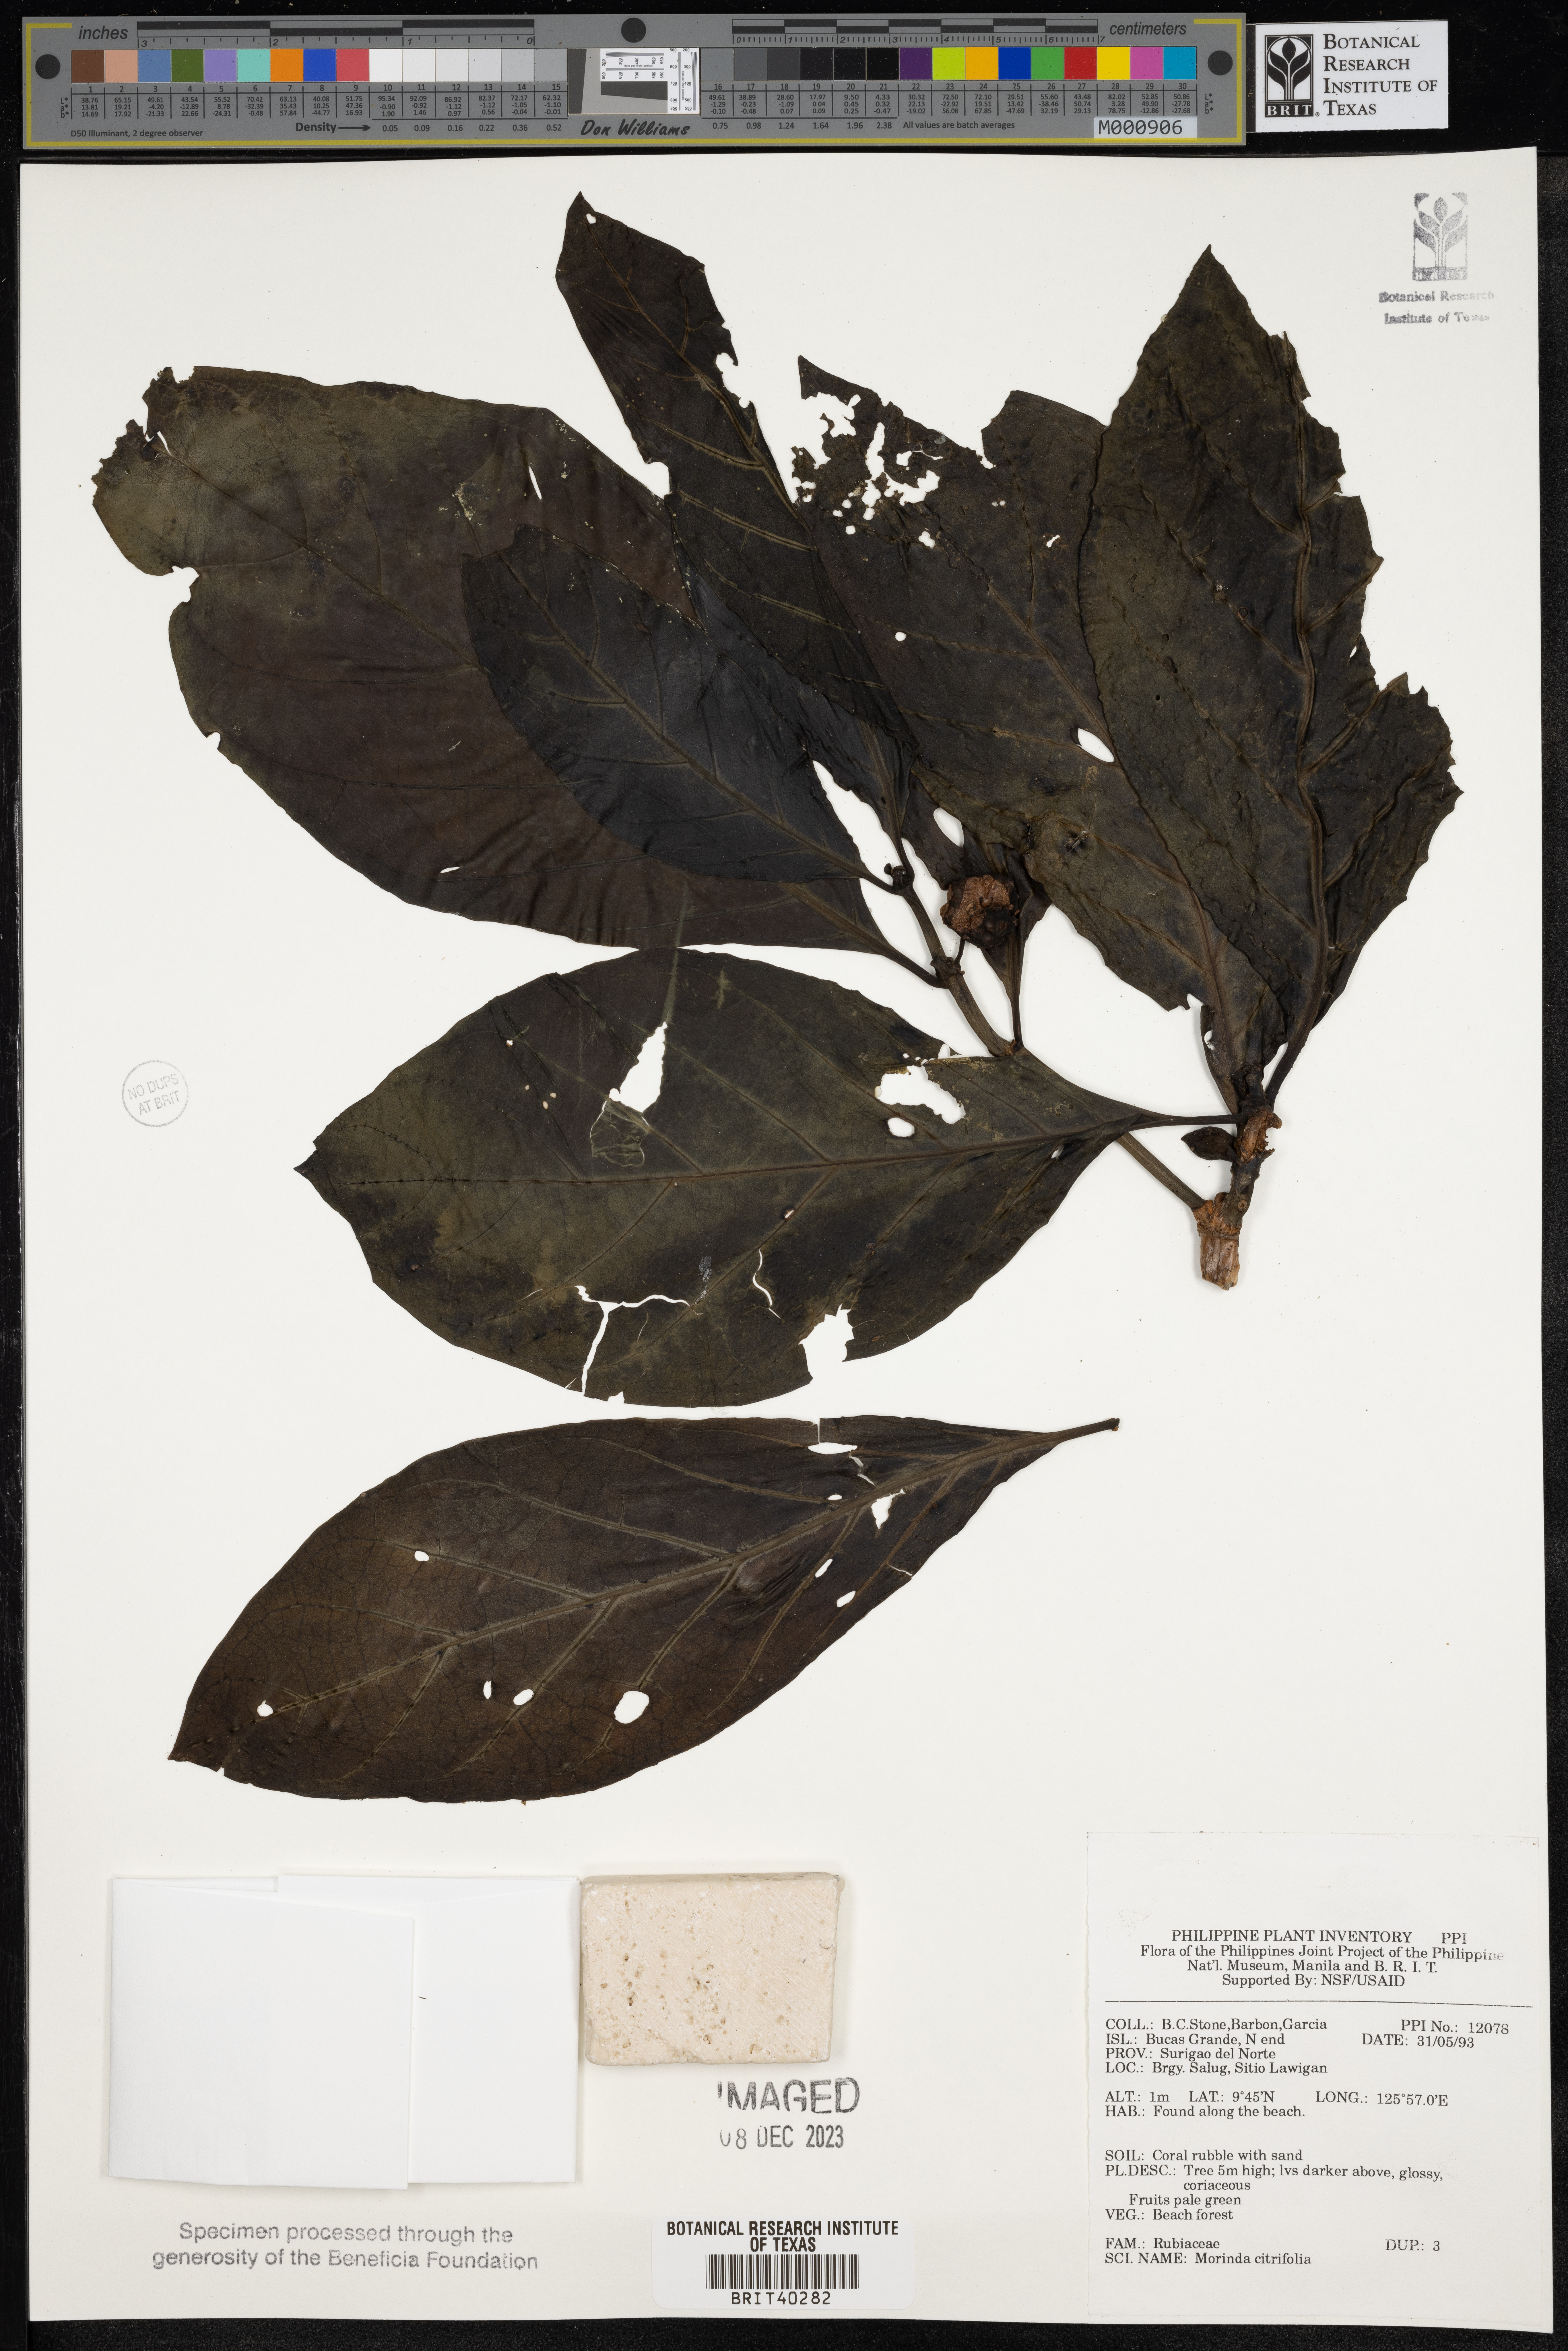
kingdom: Plantae
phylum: Tracheophyta
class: Magnoliopsida
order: Gentianales
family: Rubiaceae
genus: Morinda
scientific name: Morinda citrifolia
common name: Indian-mulberry
